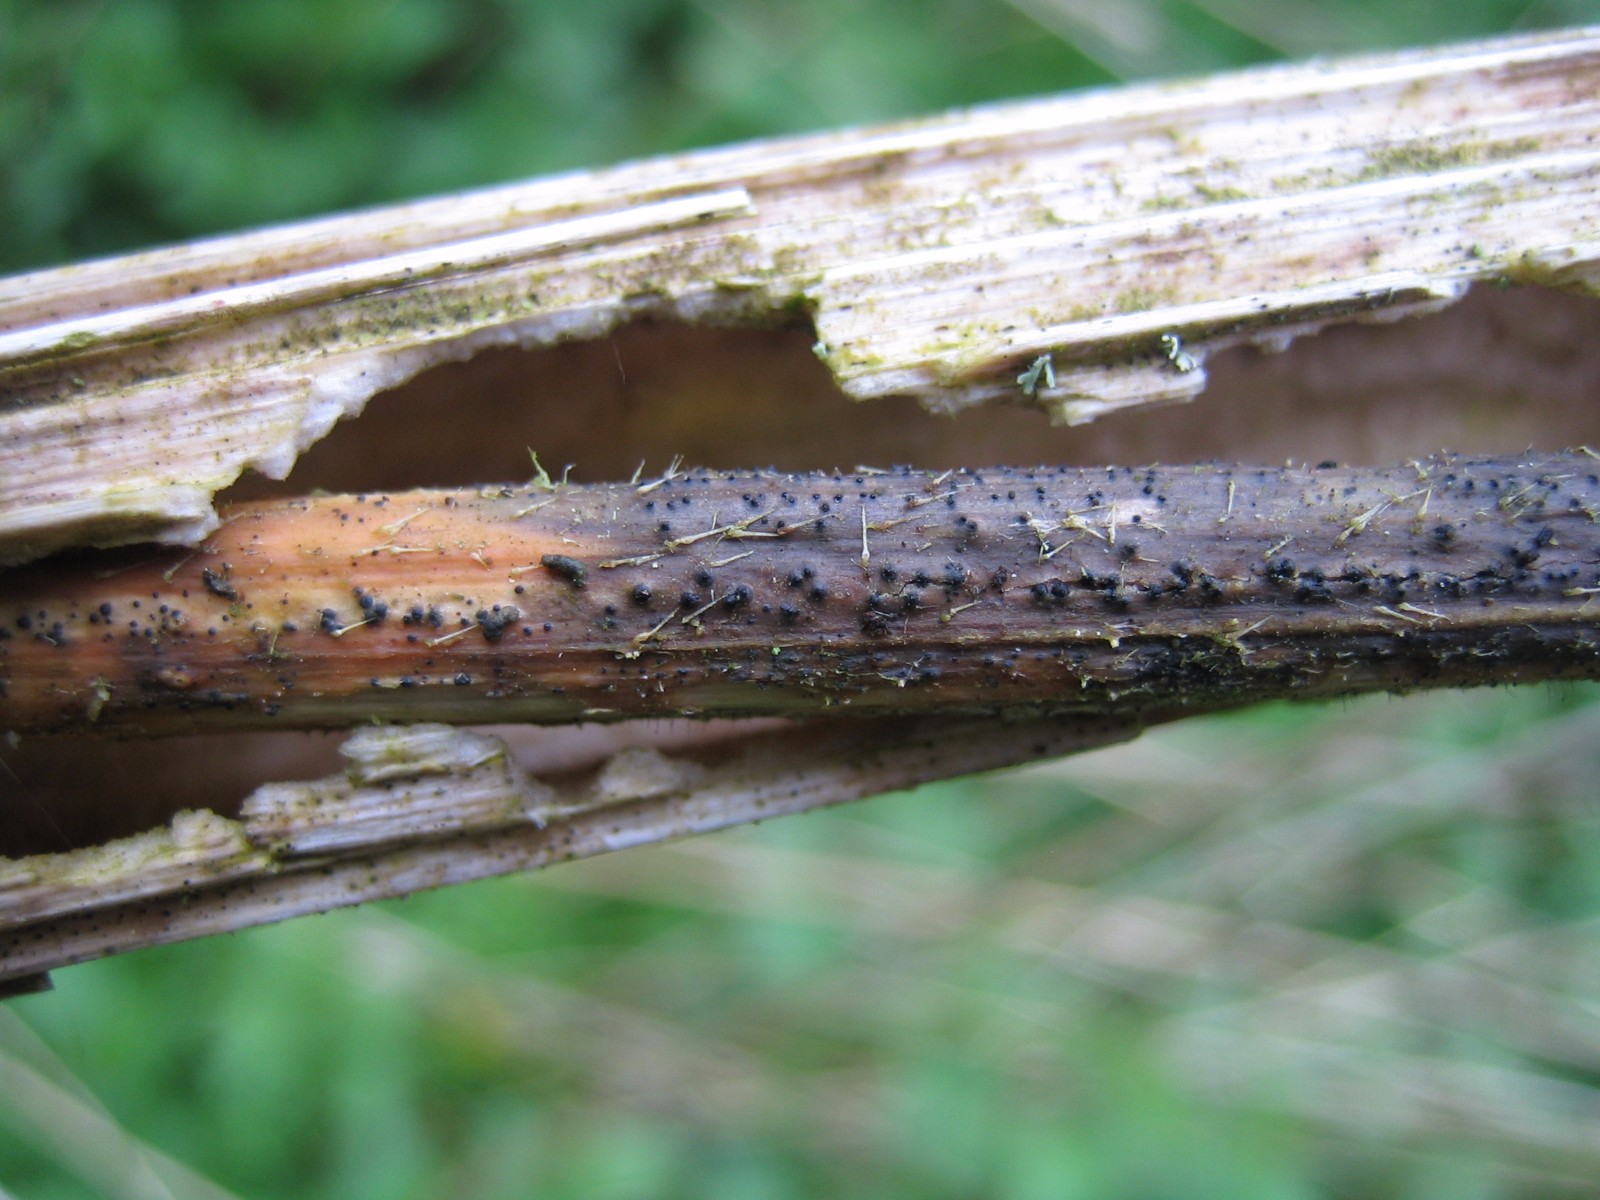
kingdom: Fungi
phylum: Ascomycota
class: Dothideomycetes
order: Pleosporales
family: Leptosphaeriaceae
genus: Leptosphaeria
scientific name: Leptosphaeria
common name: kulkegle
